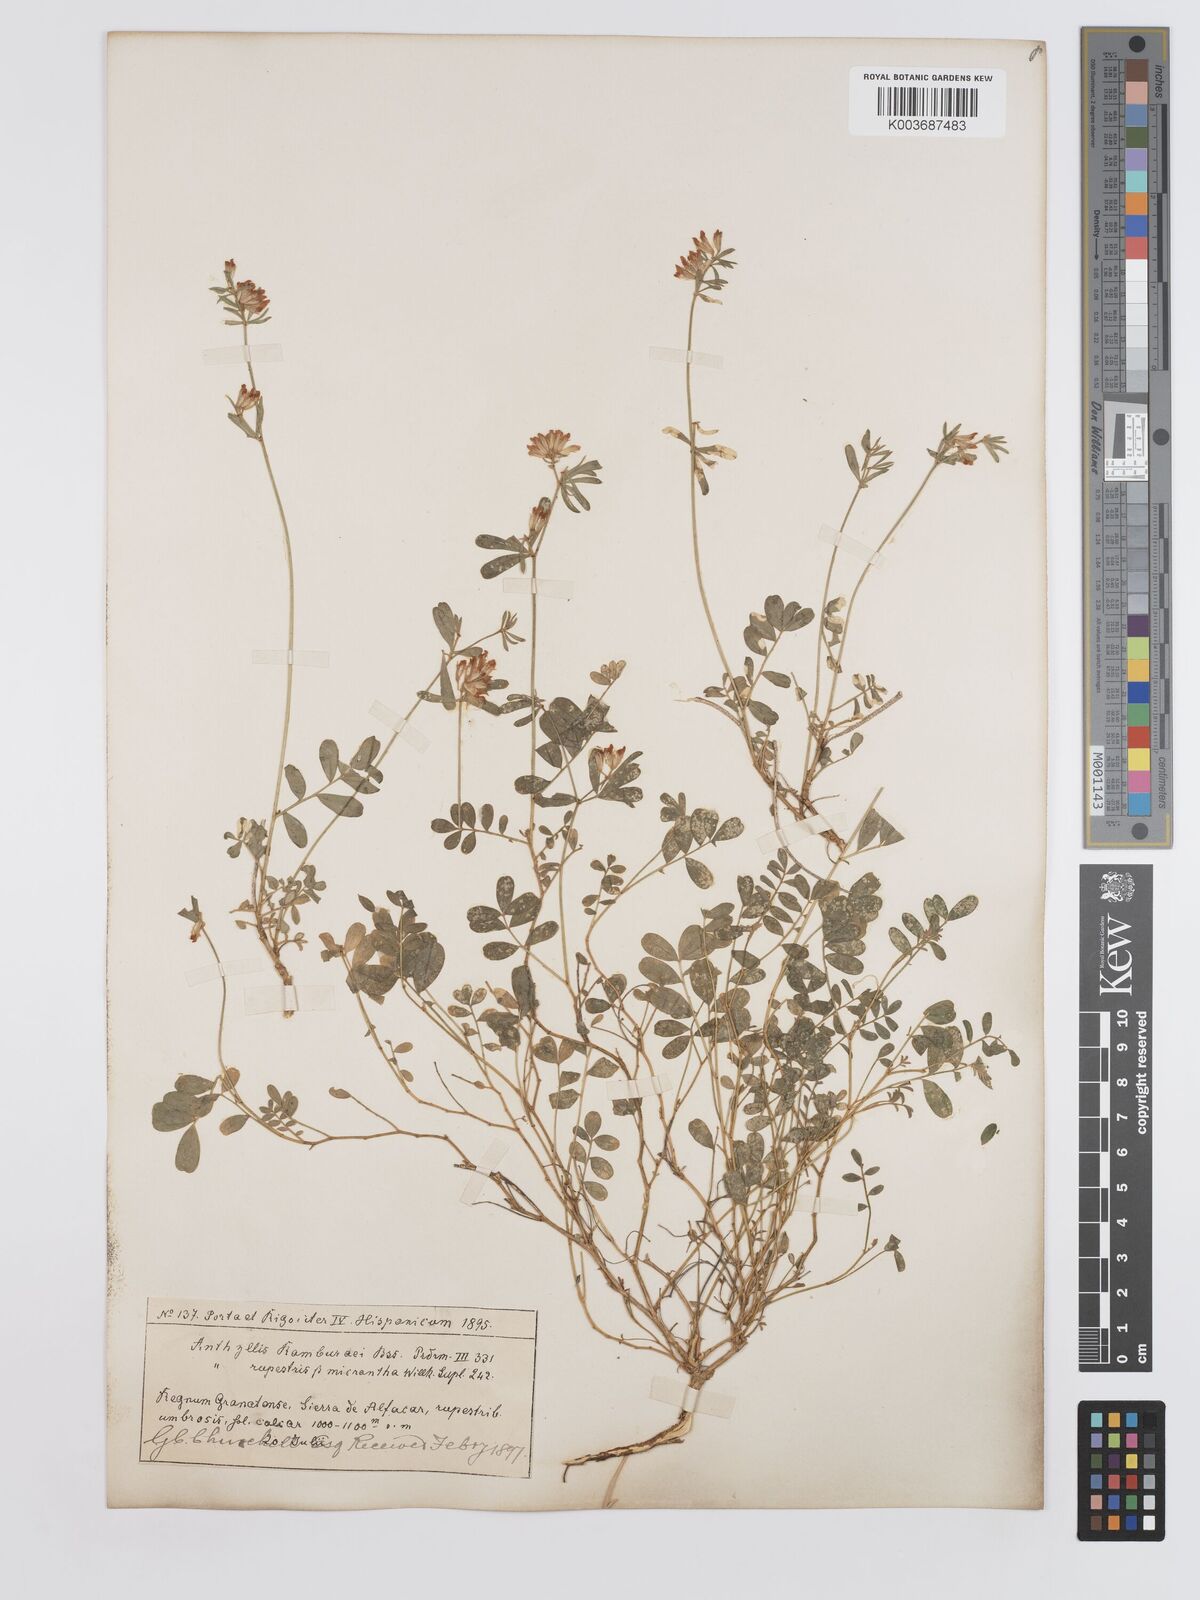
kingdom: Plantae
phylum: Tracheophyta
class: Magnoliopsida
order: Fabales
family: Fabaceae
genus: Anthyllis
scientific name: Anthyllis ramburei
